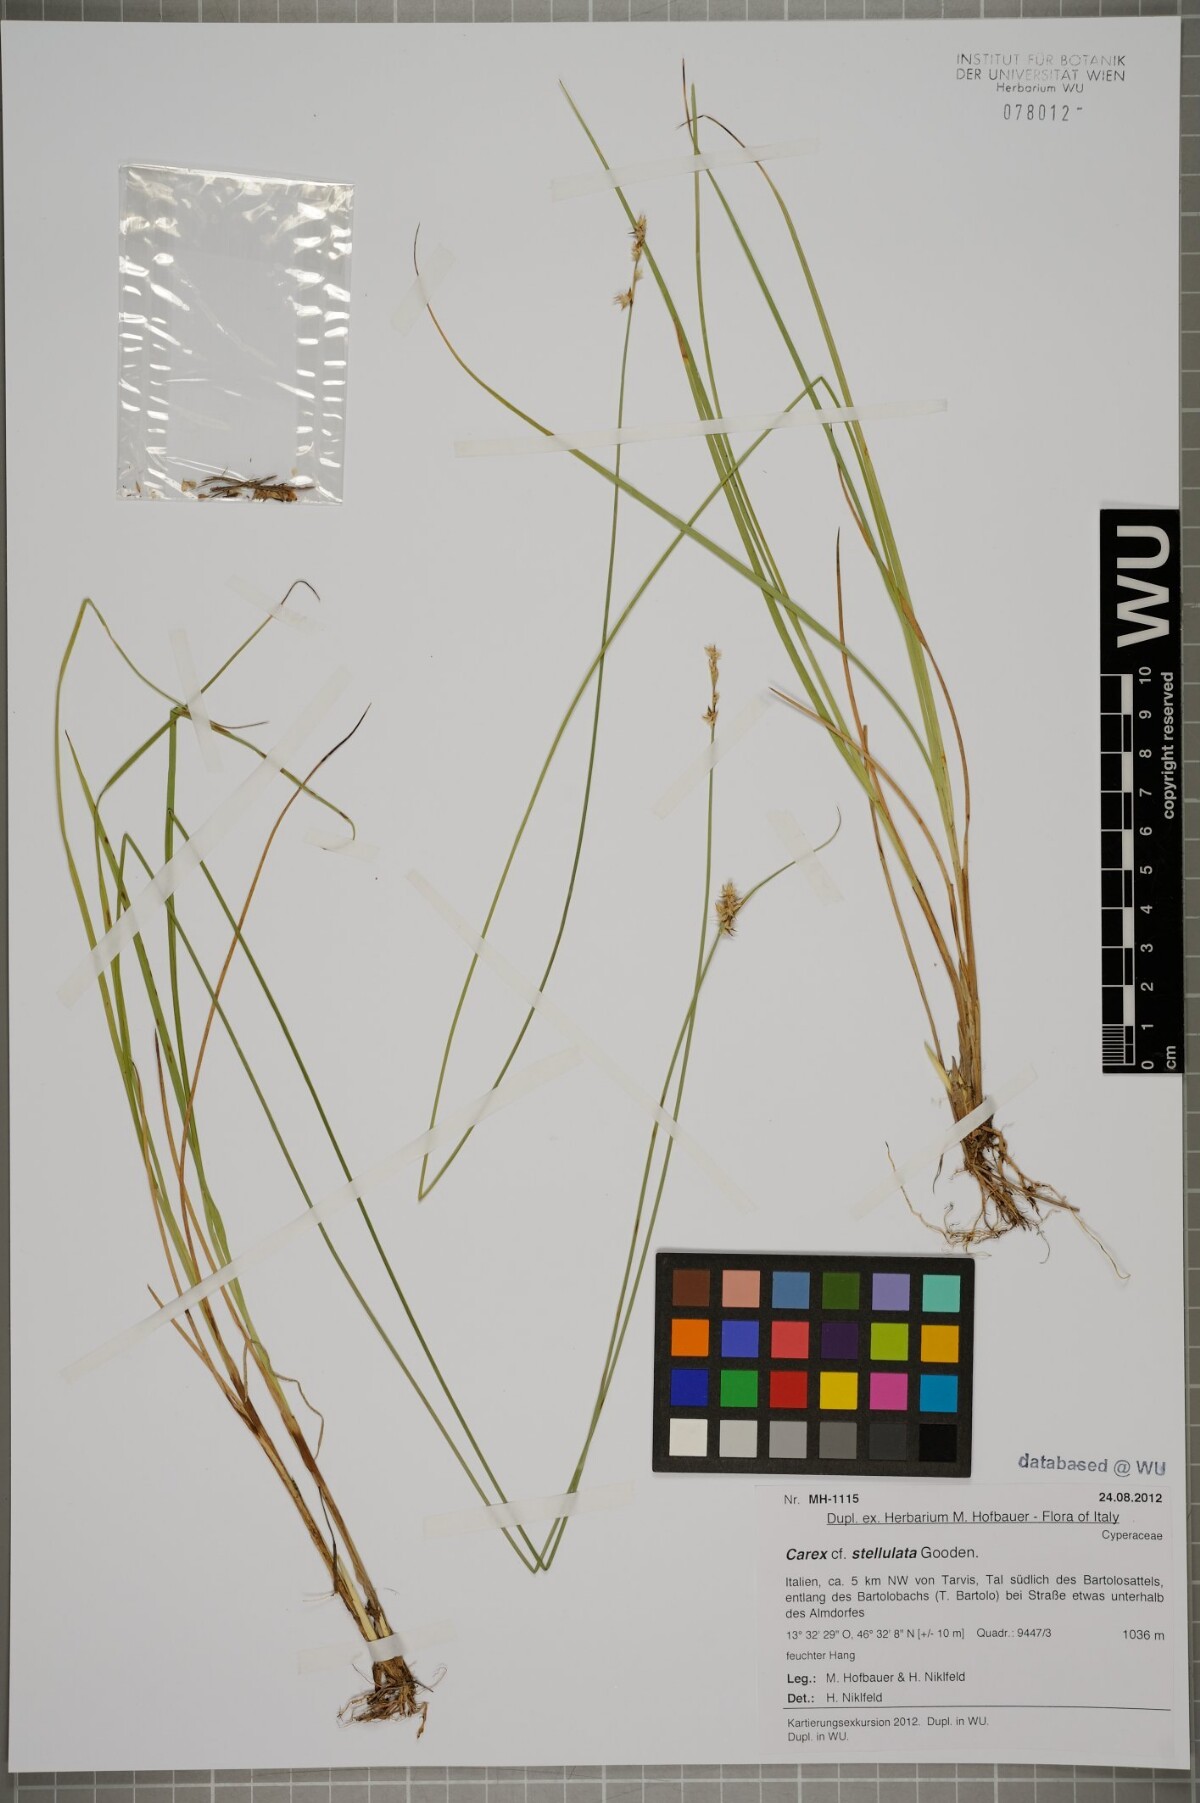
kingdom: Plantae
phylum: Tracheophyta
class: Liliopsida
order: Poales
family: Cyperaceae
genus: Carex
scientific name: Carex echinata
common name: Star sedge
